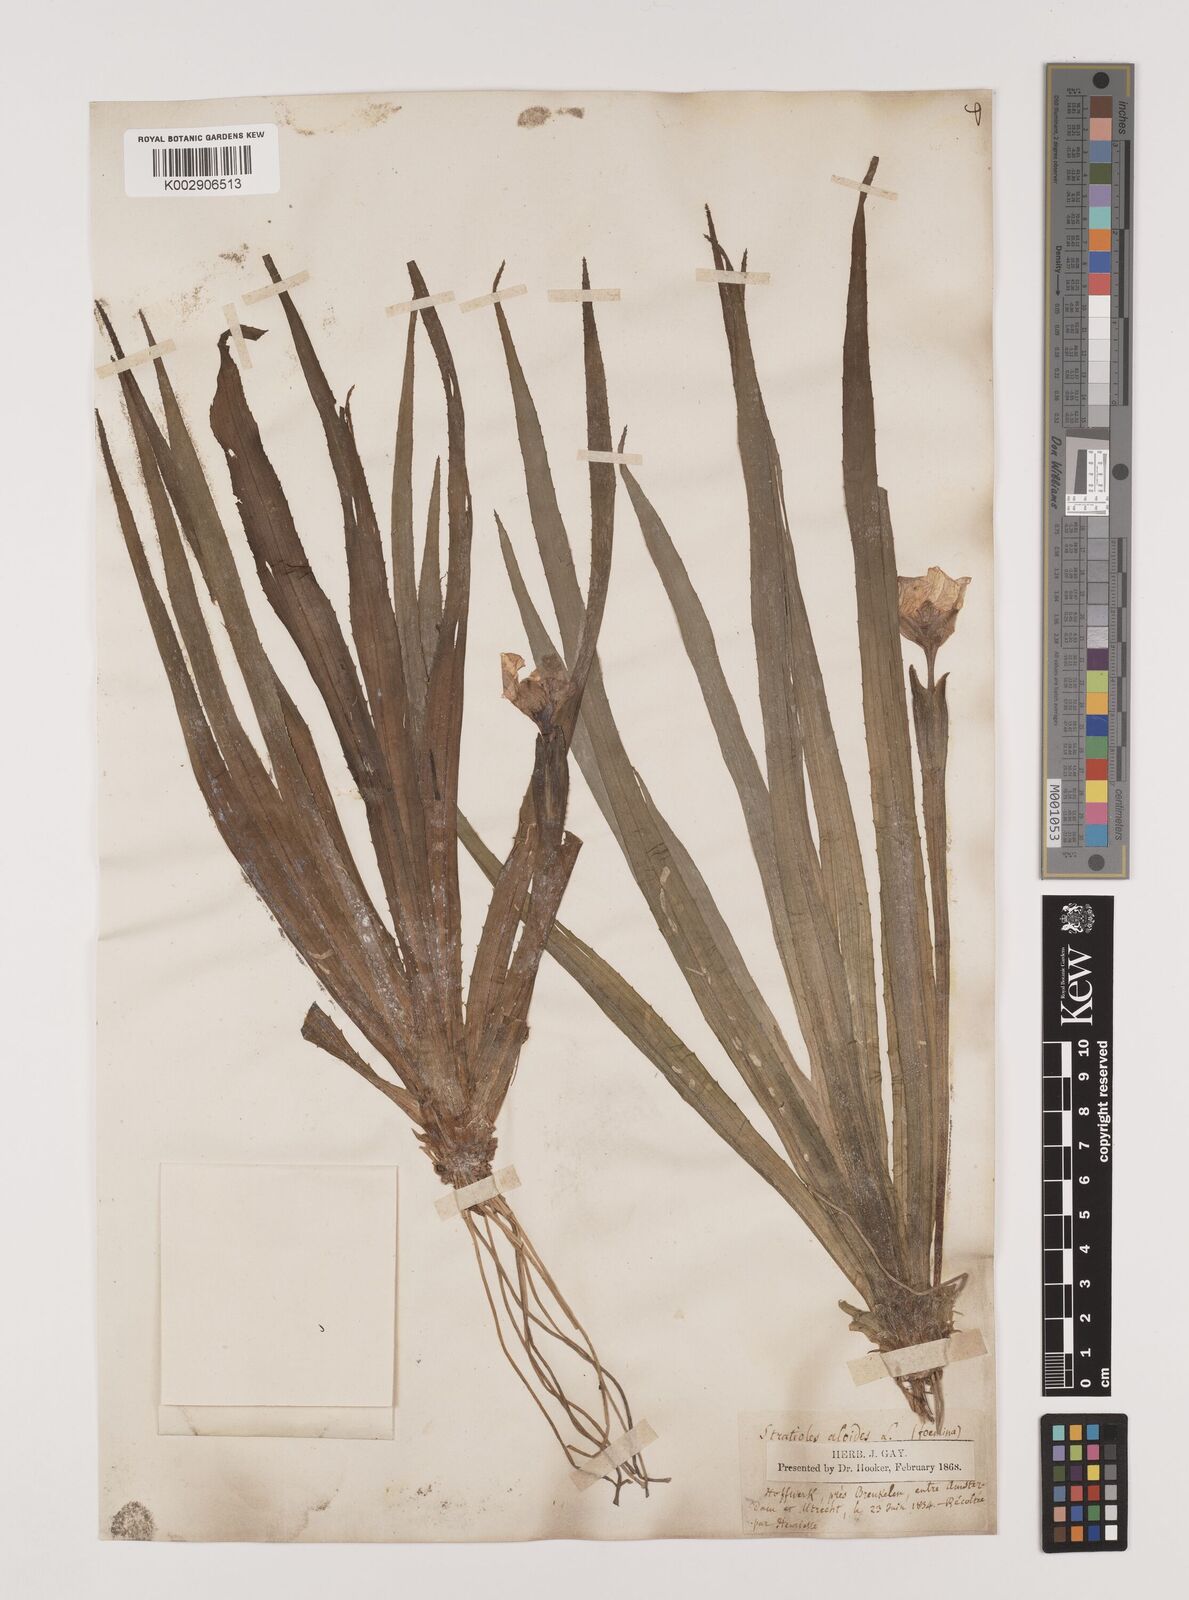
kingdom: Plantae
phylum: Tracheophyta
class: Liliopsida
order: Alismatales
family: Hydrocharitaceae
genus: Stratiotes
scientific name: Stratiotes aloides
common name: Water-soldier
